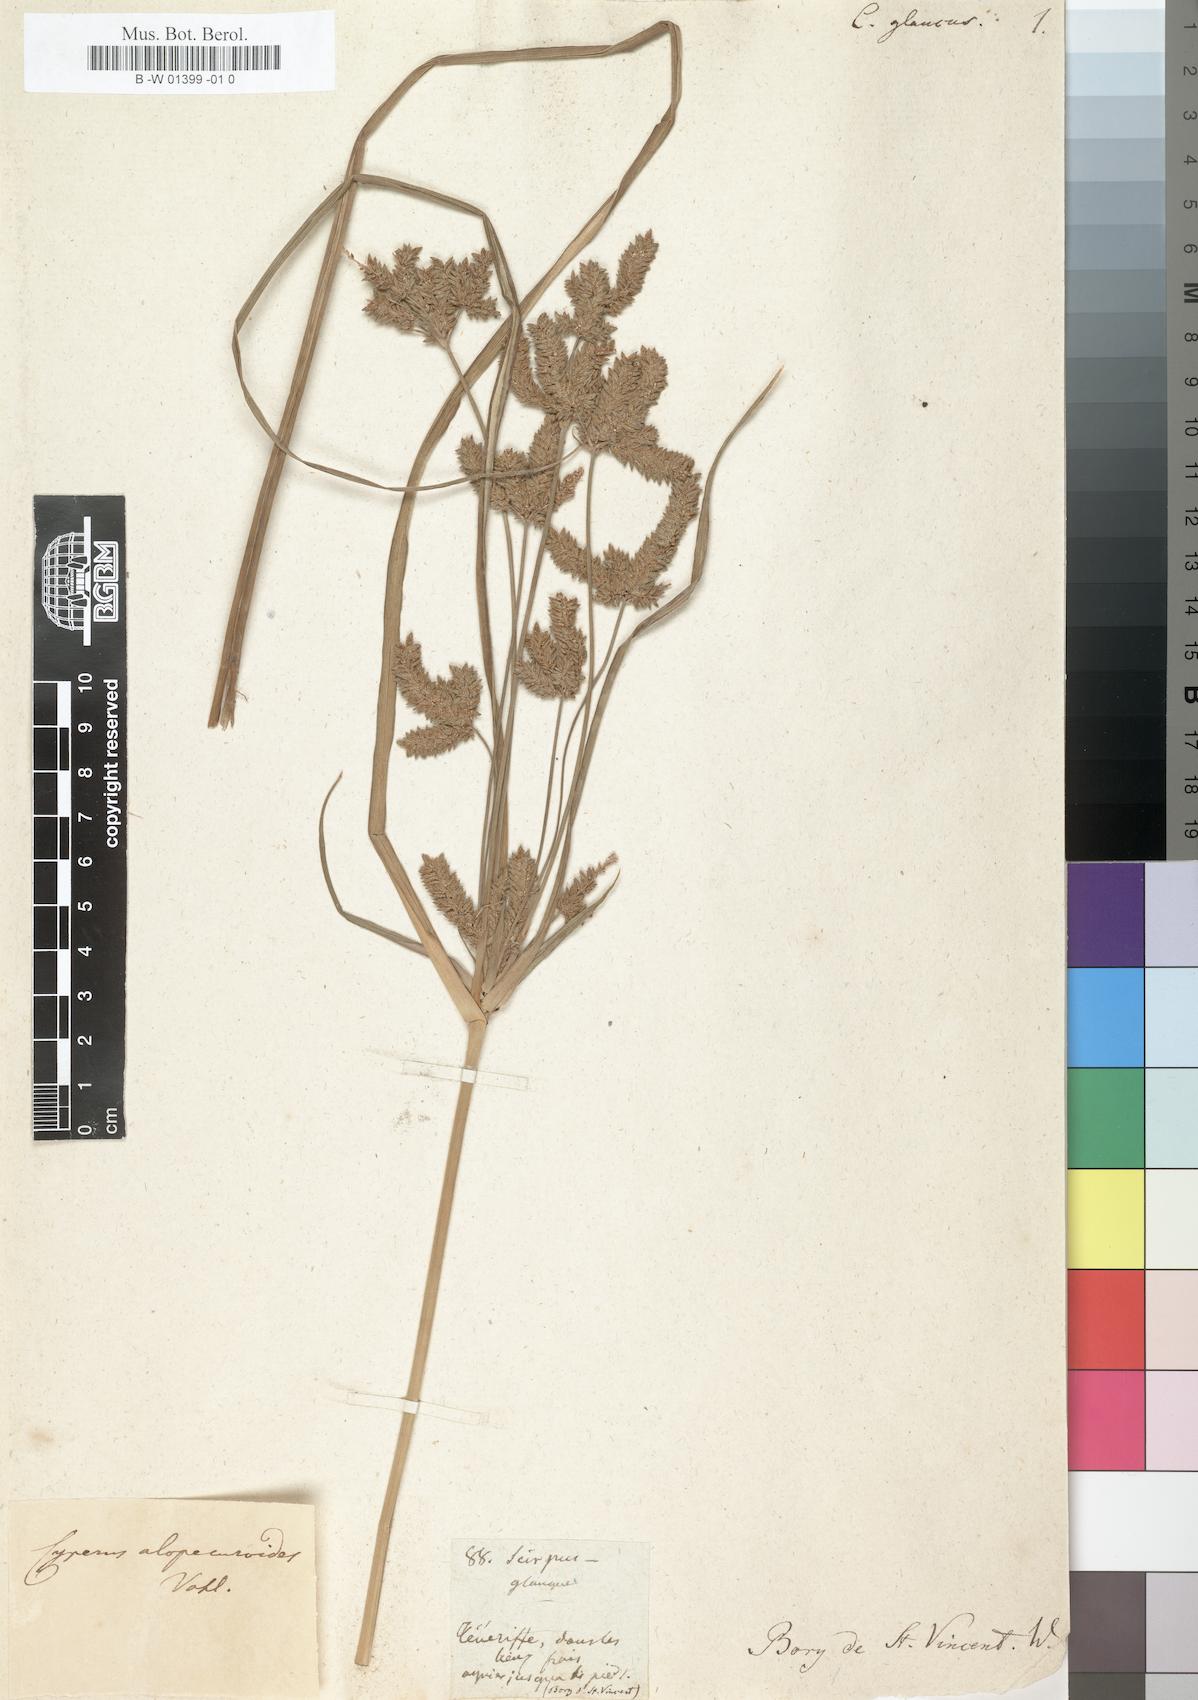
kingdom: Plantae
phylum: Tracheophyta
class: Liliopsida
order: Poales
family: Cyperaceae
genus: Cyperus
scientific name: Cyperus
